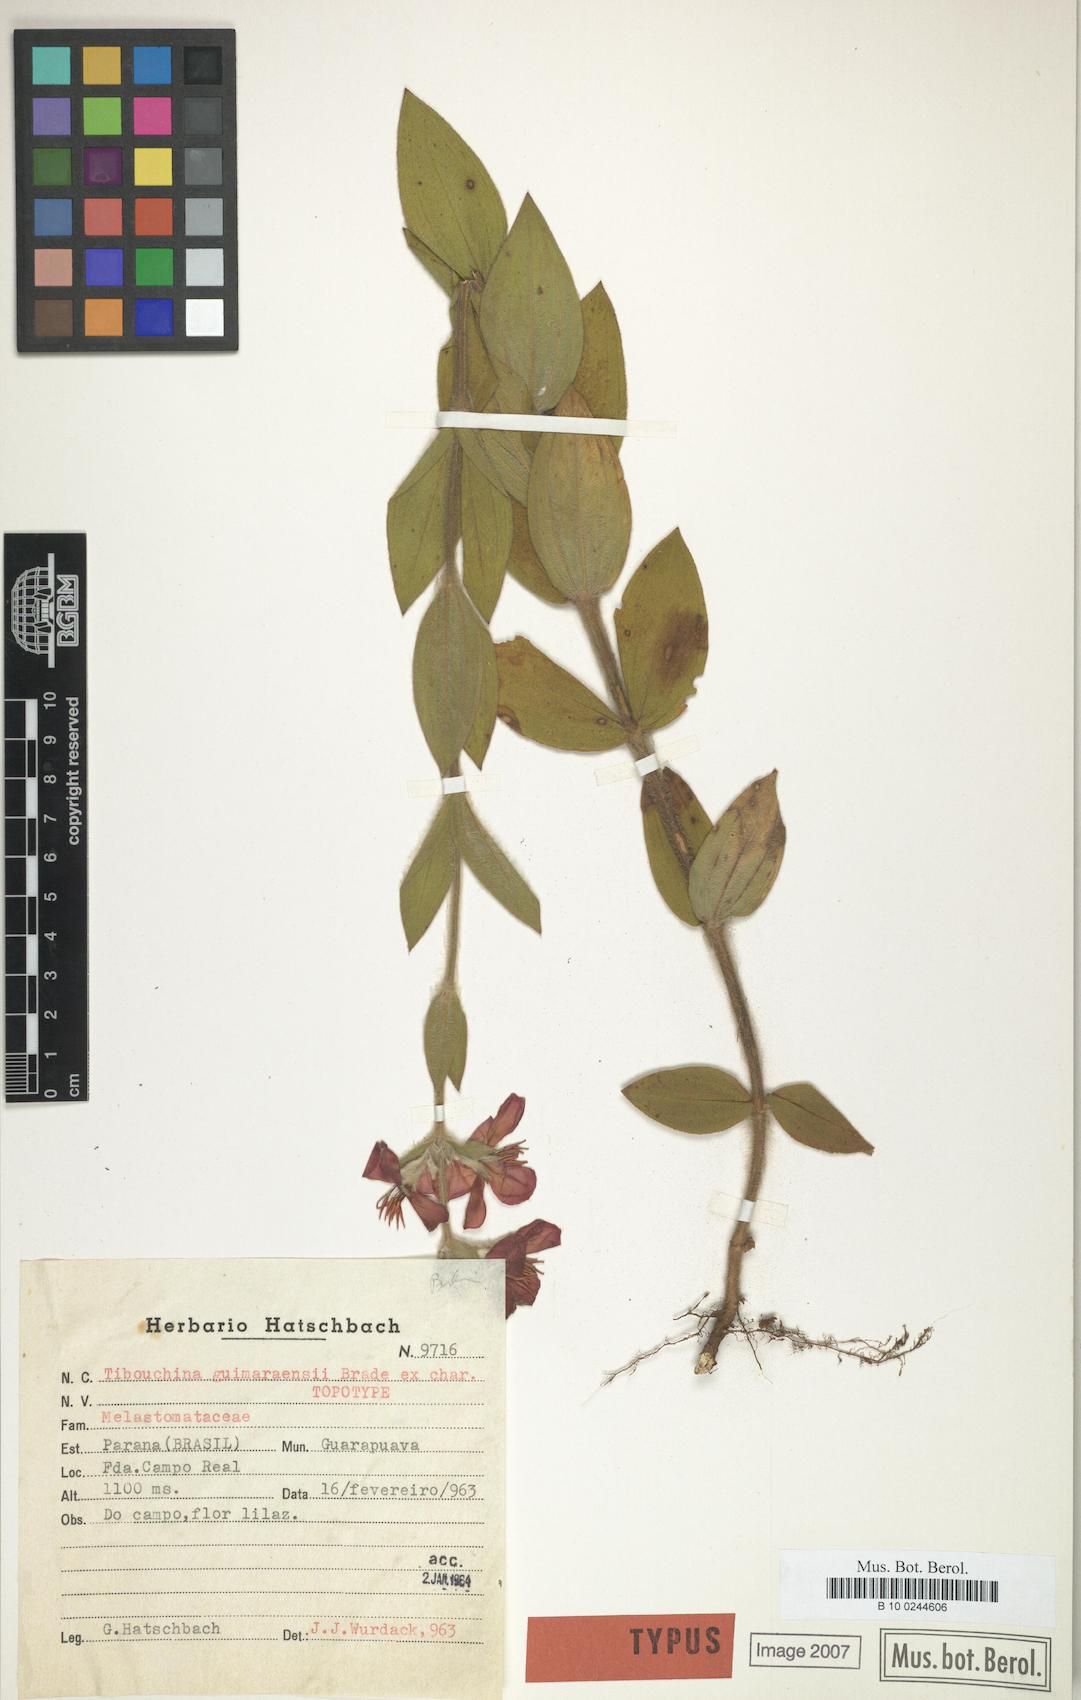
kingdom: Plantae
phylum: Tracheophyta
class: Magnoliopsida
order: Myrtales
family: Melastomataceae
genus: Chaetogastra
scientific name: Chaetogastra hassleri
